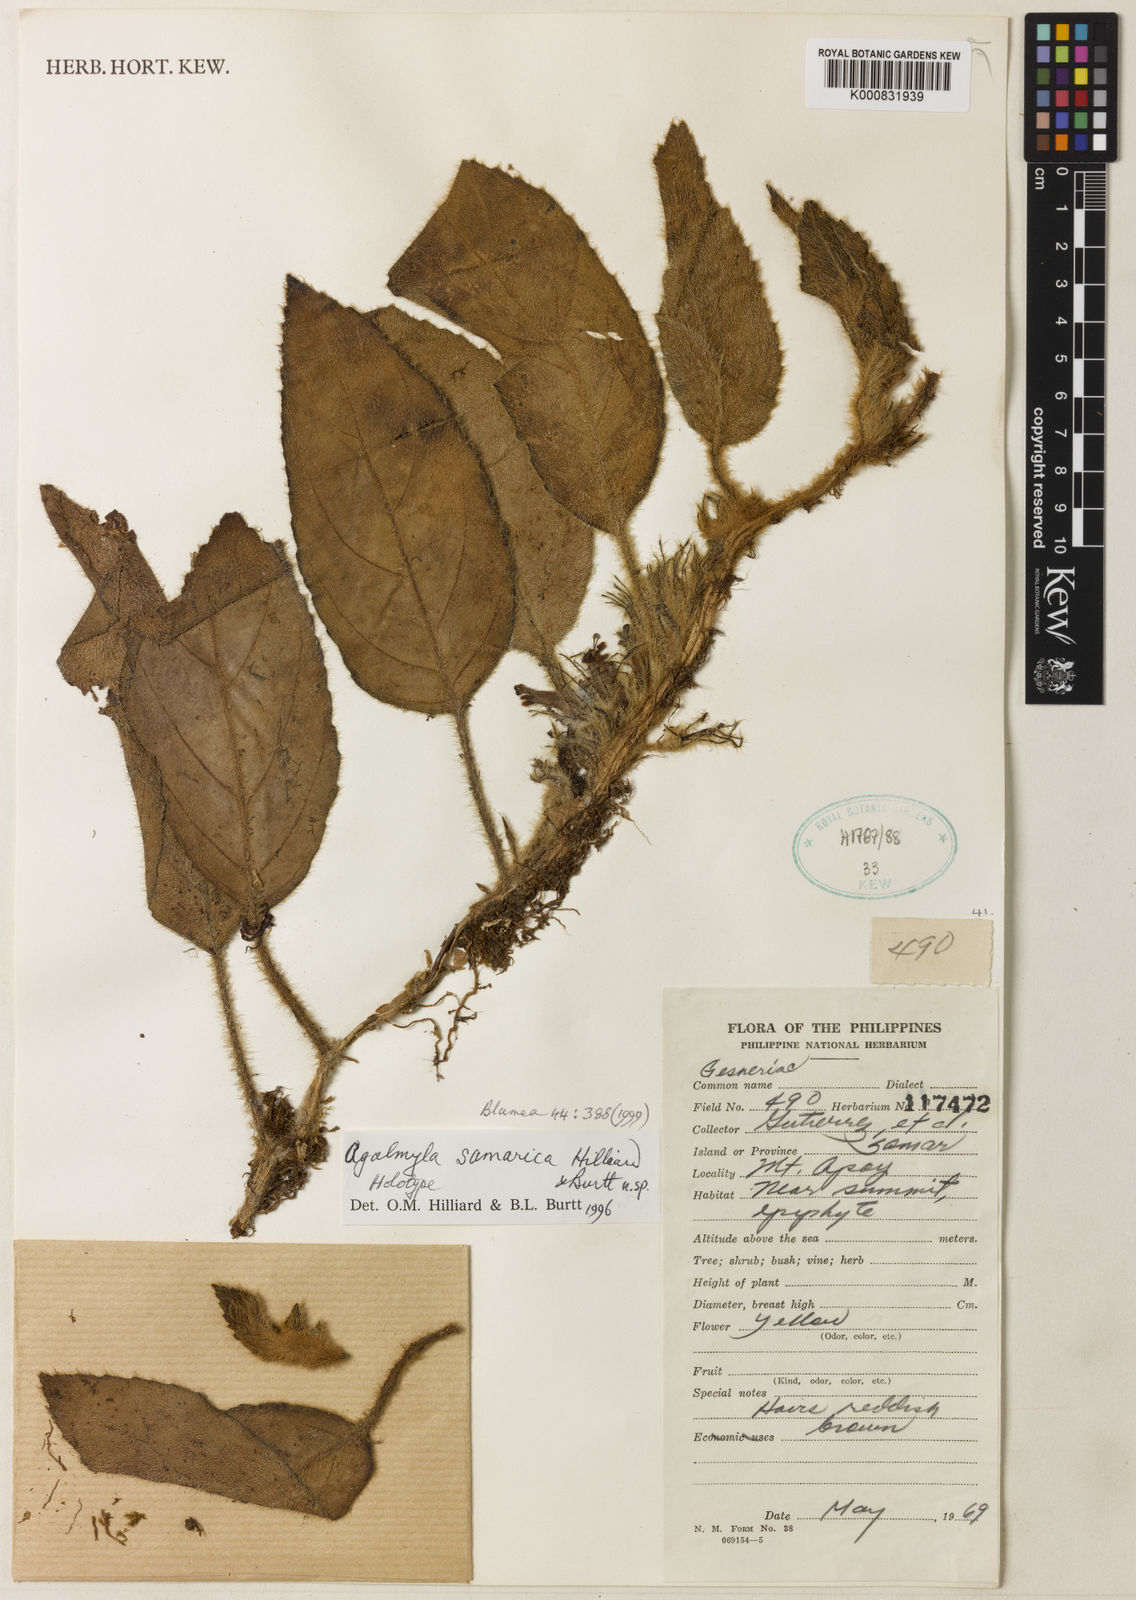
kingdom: Plantae
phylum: Tracheophyta
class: Magnoliopsida
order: Lamiales
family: Gesneriaceae
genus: Agalmyla
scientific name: Agalmyla samarica
